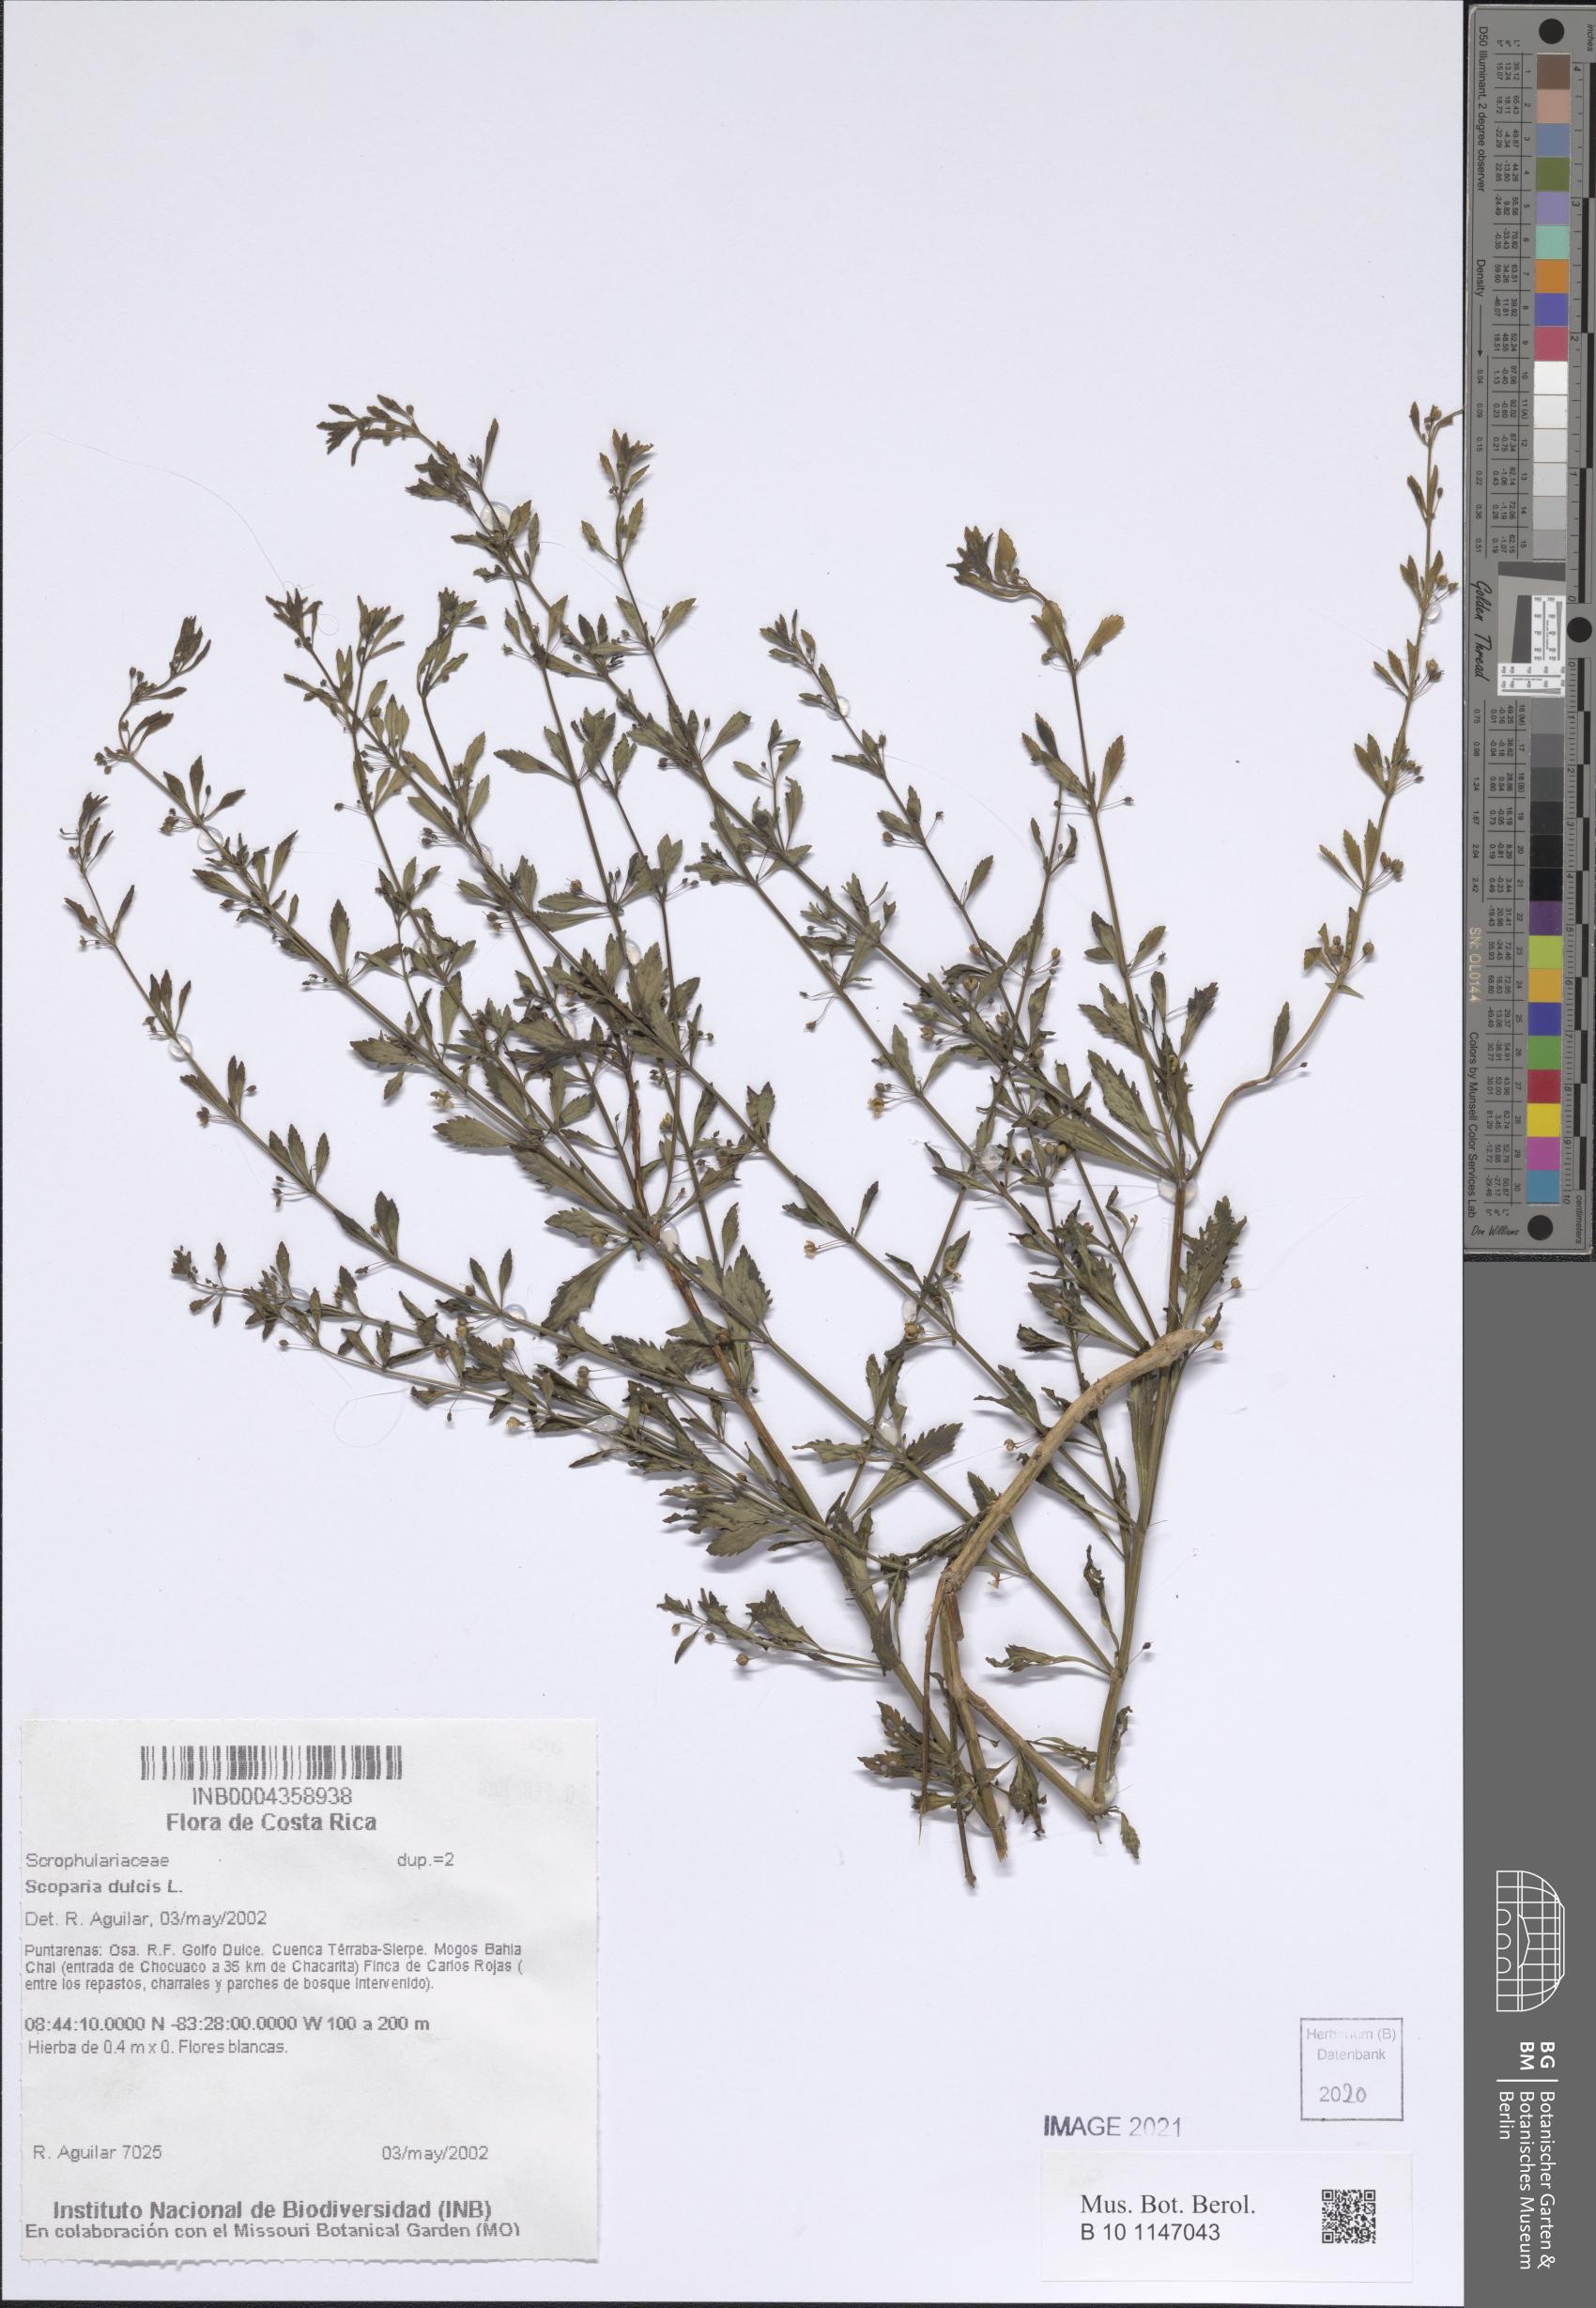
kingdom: Plantae
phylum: Tracheophyta
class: Magnoliopsida
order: Lamiales
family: Plantaginaceae
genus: Scoparia
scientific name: Scoparia dulcis
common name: Scoparia-weed
